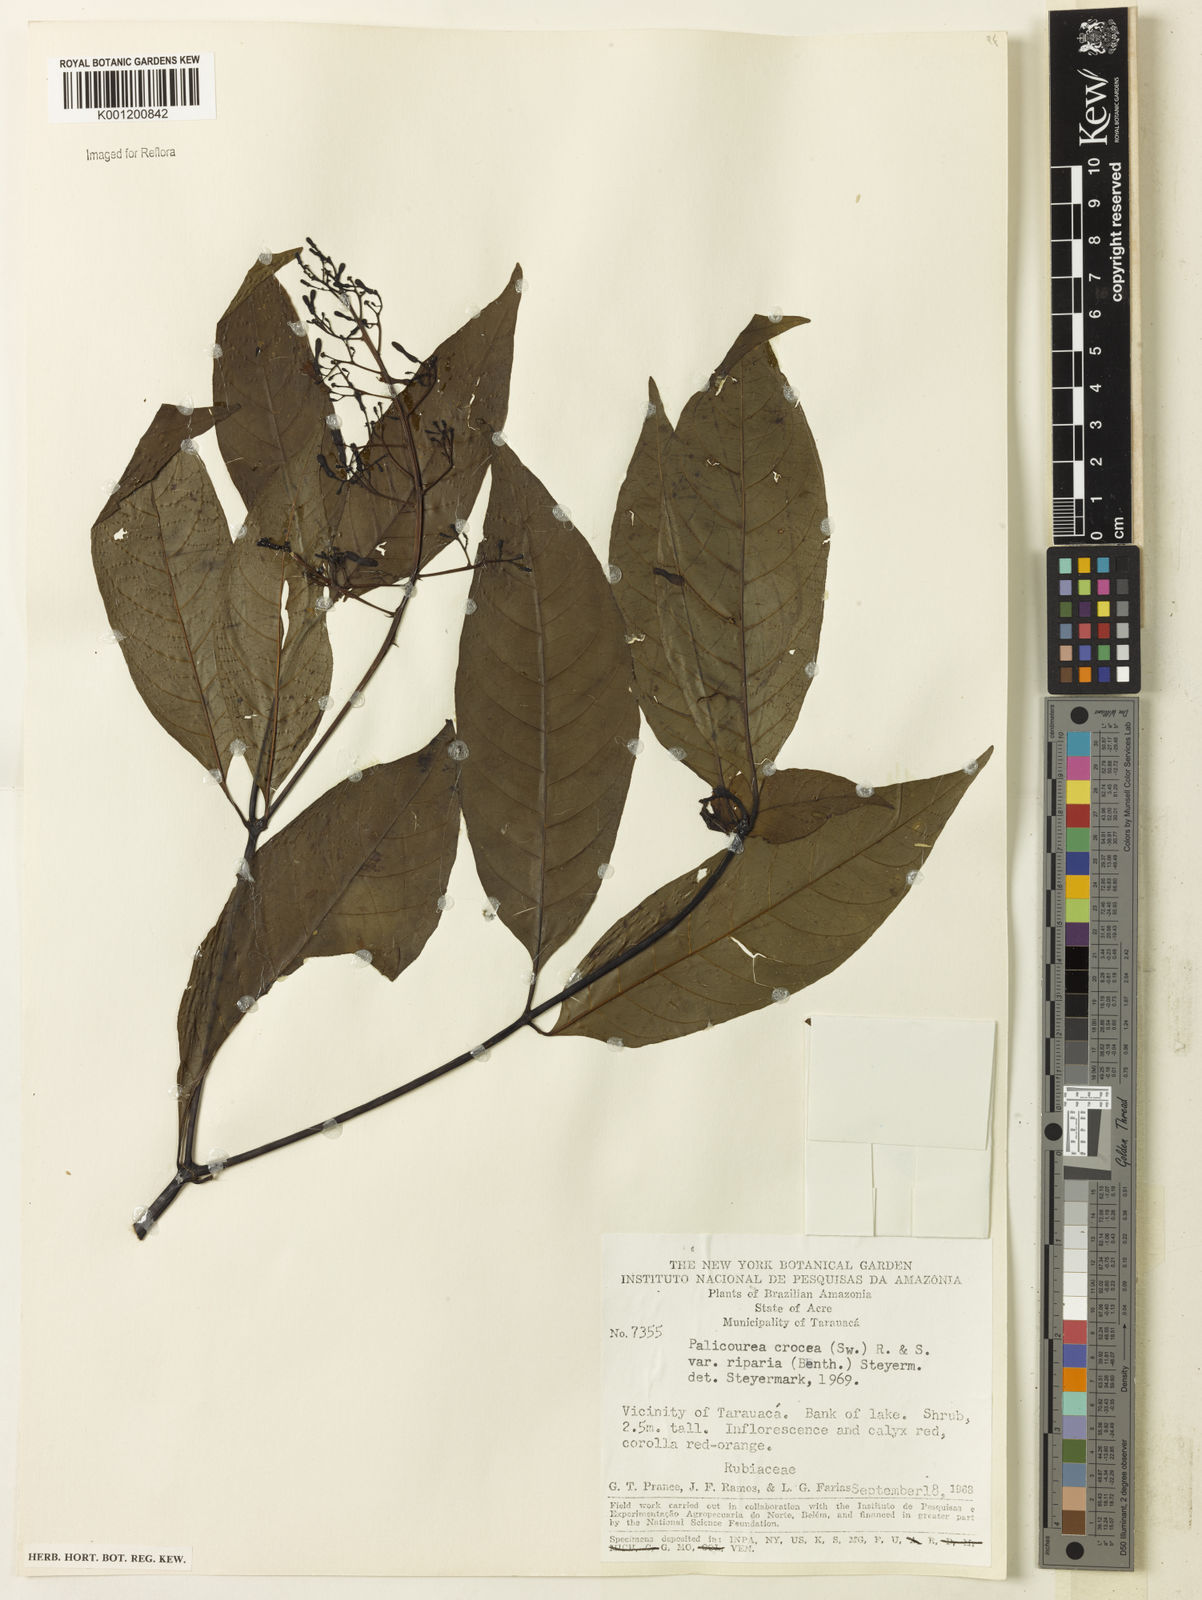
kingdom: Plantae
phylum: Tracheophyta
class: Magnoliopsida
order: Gentianales
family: Rubiaceae
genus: Palicourea
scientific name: Palicourea croceoides
